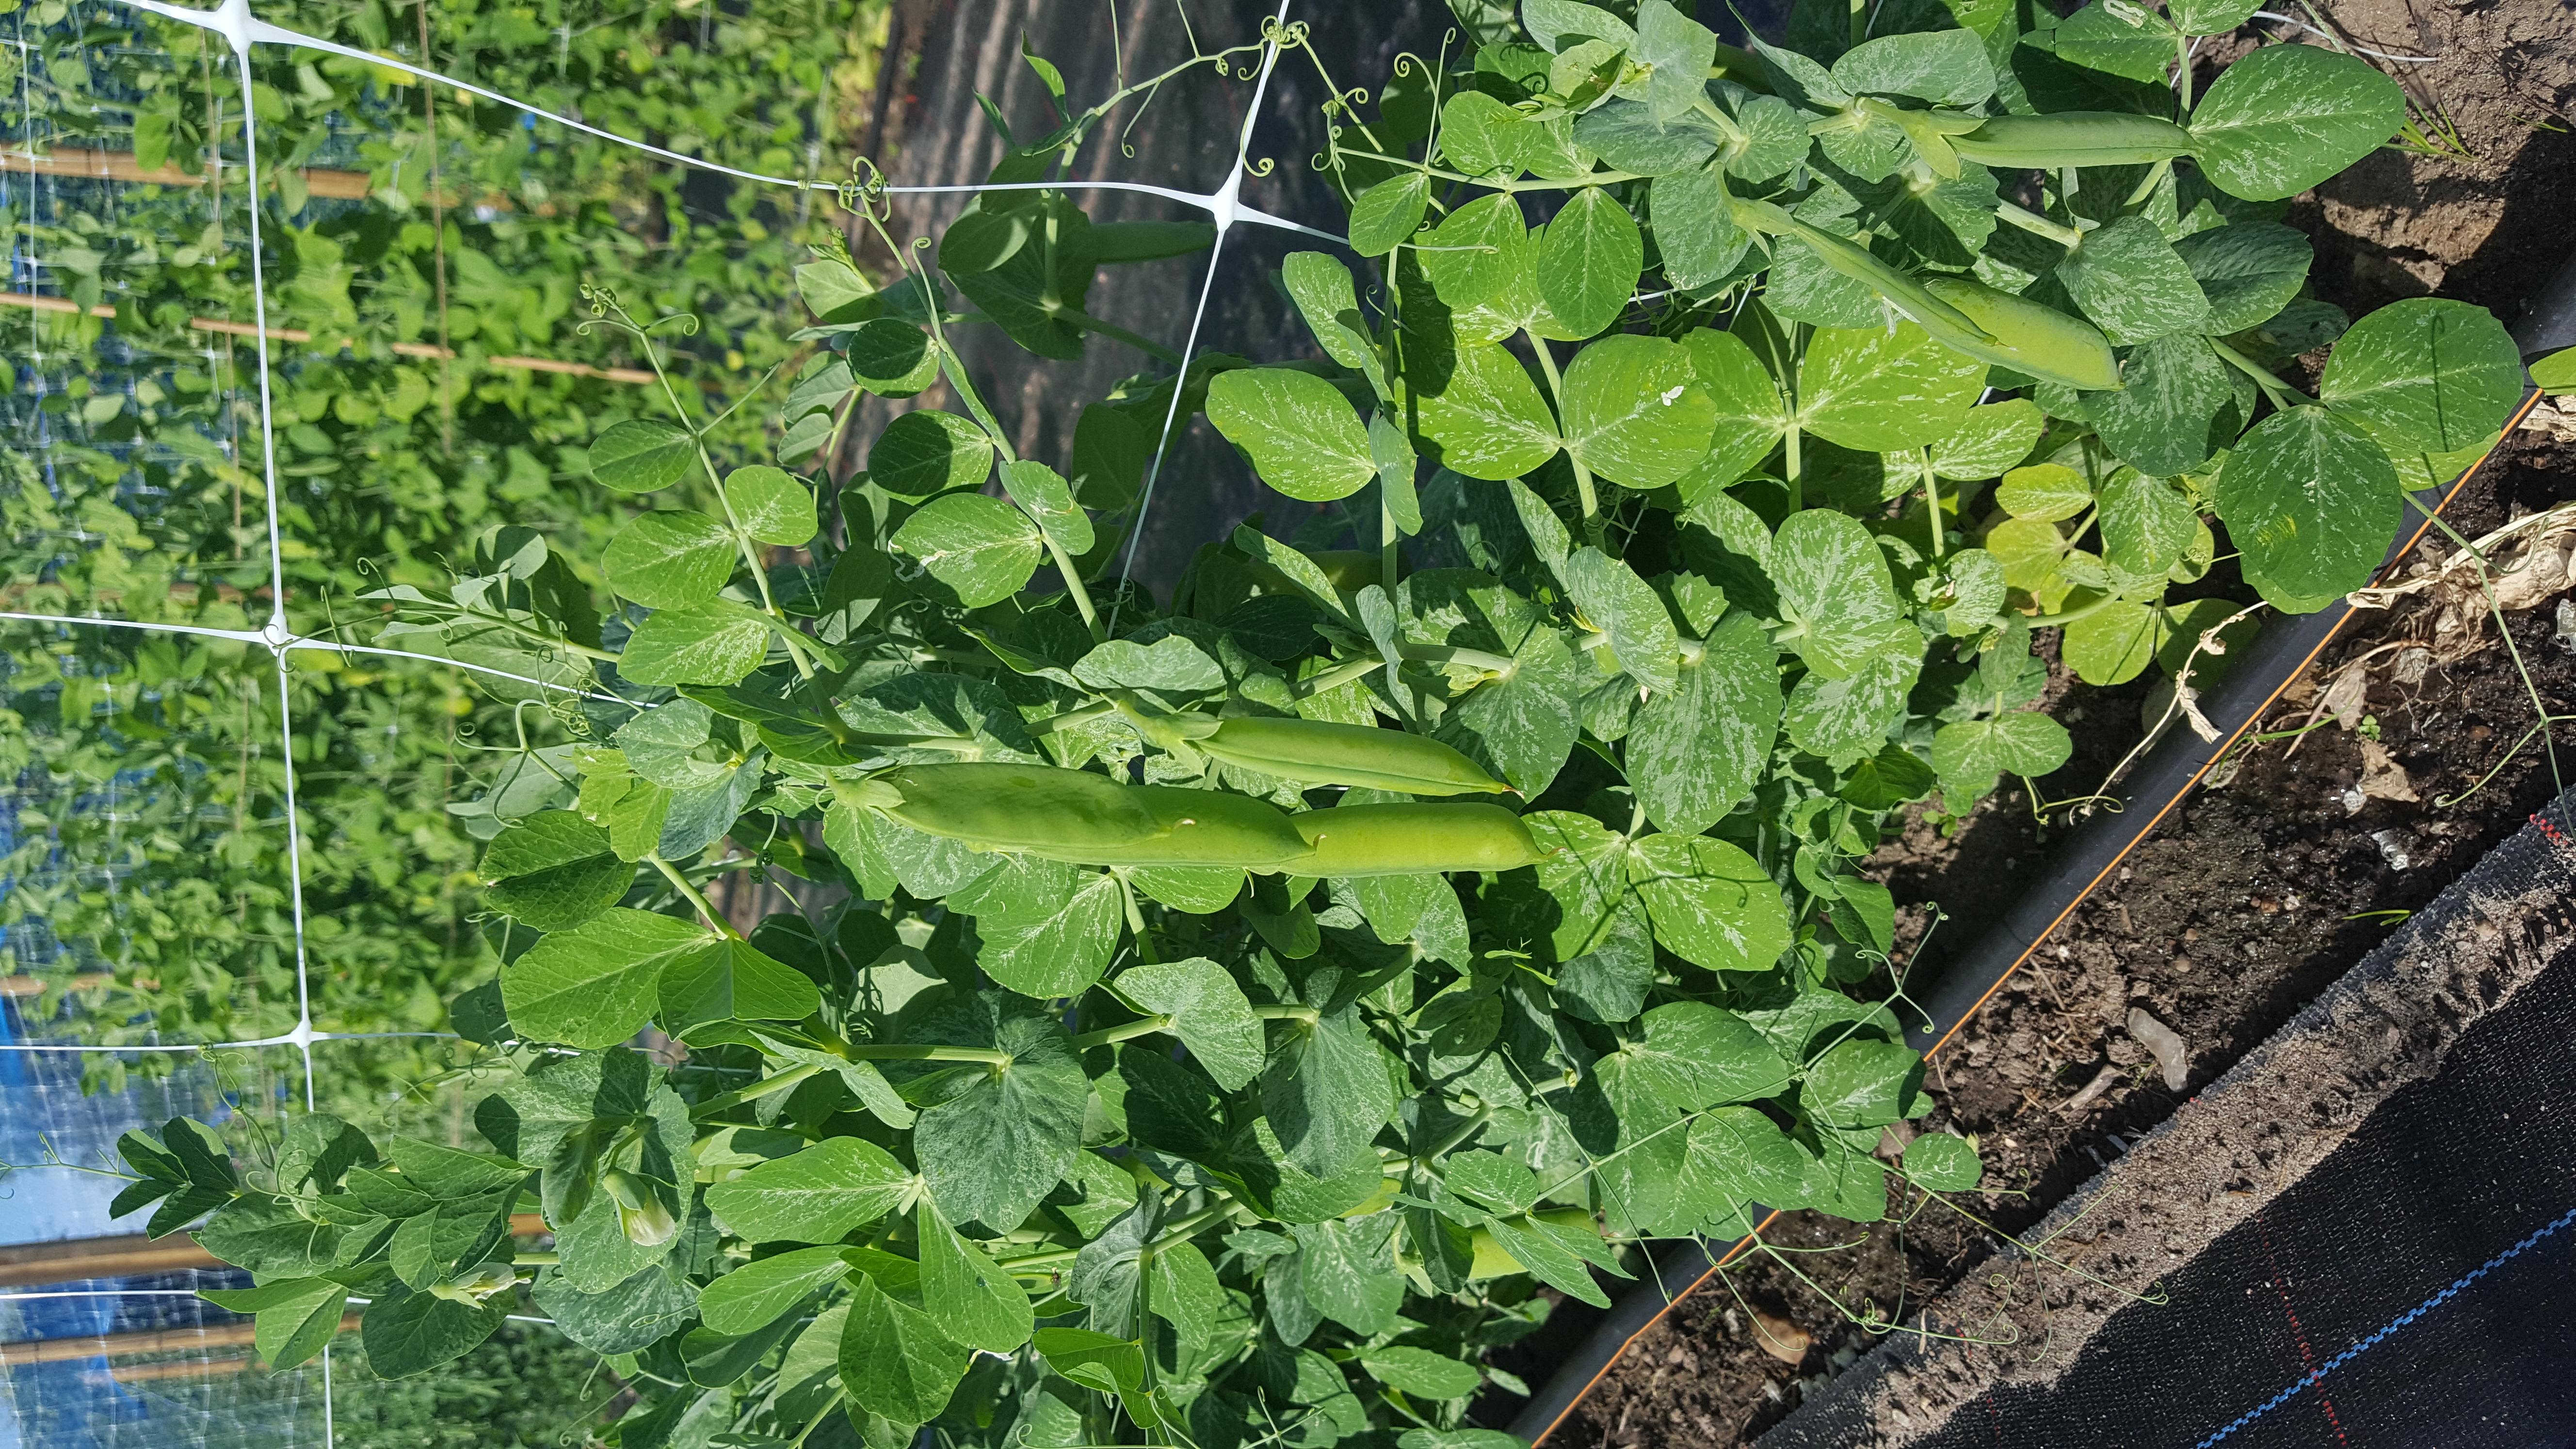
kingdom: Plantae
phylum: Tracheophyta
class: Magnoliopsida
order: Fabales
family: Fabaceae
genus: Lathyrus
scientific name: Lathyrus oleraceus
